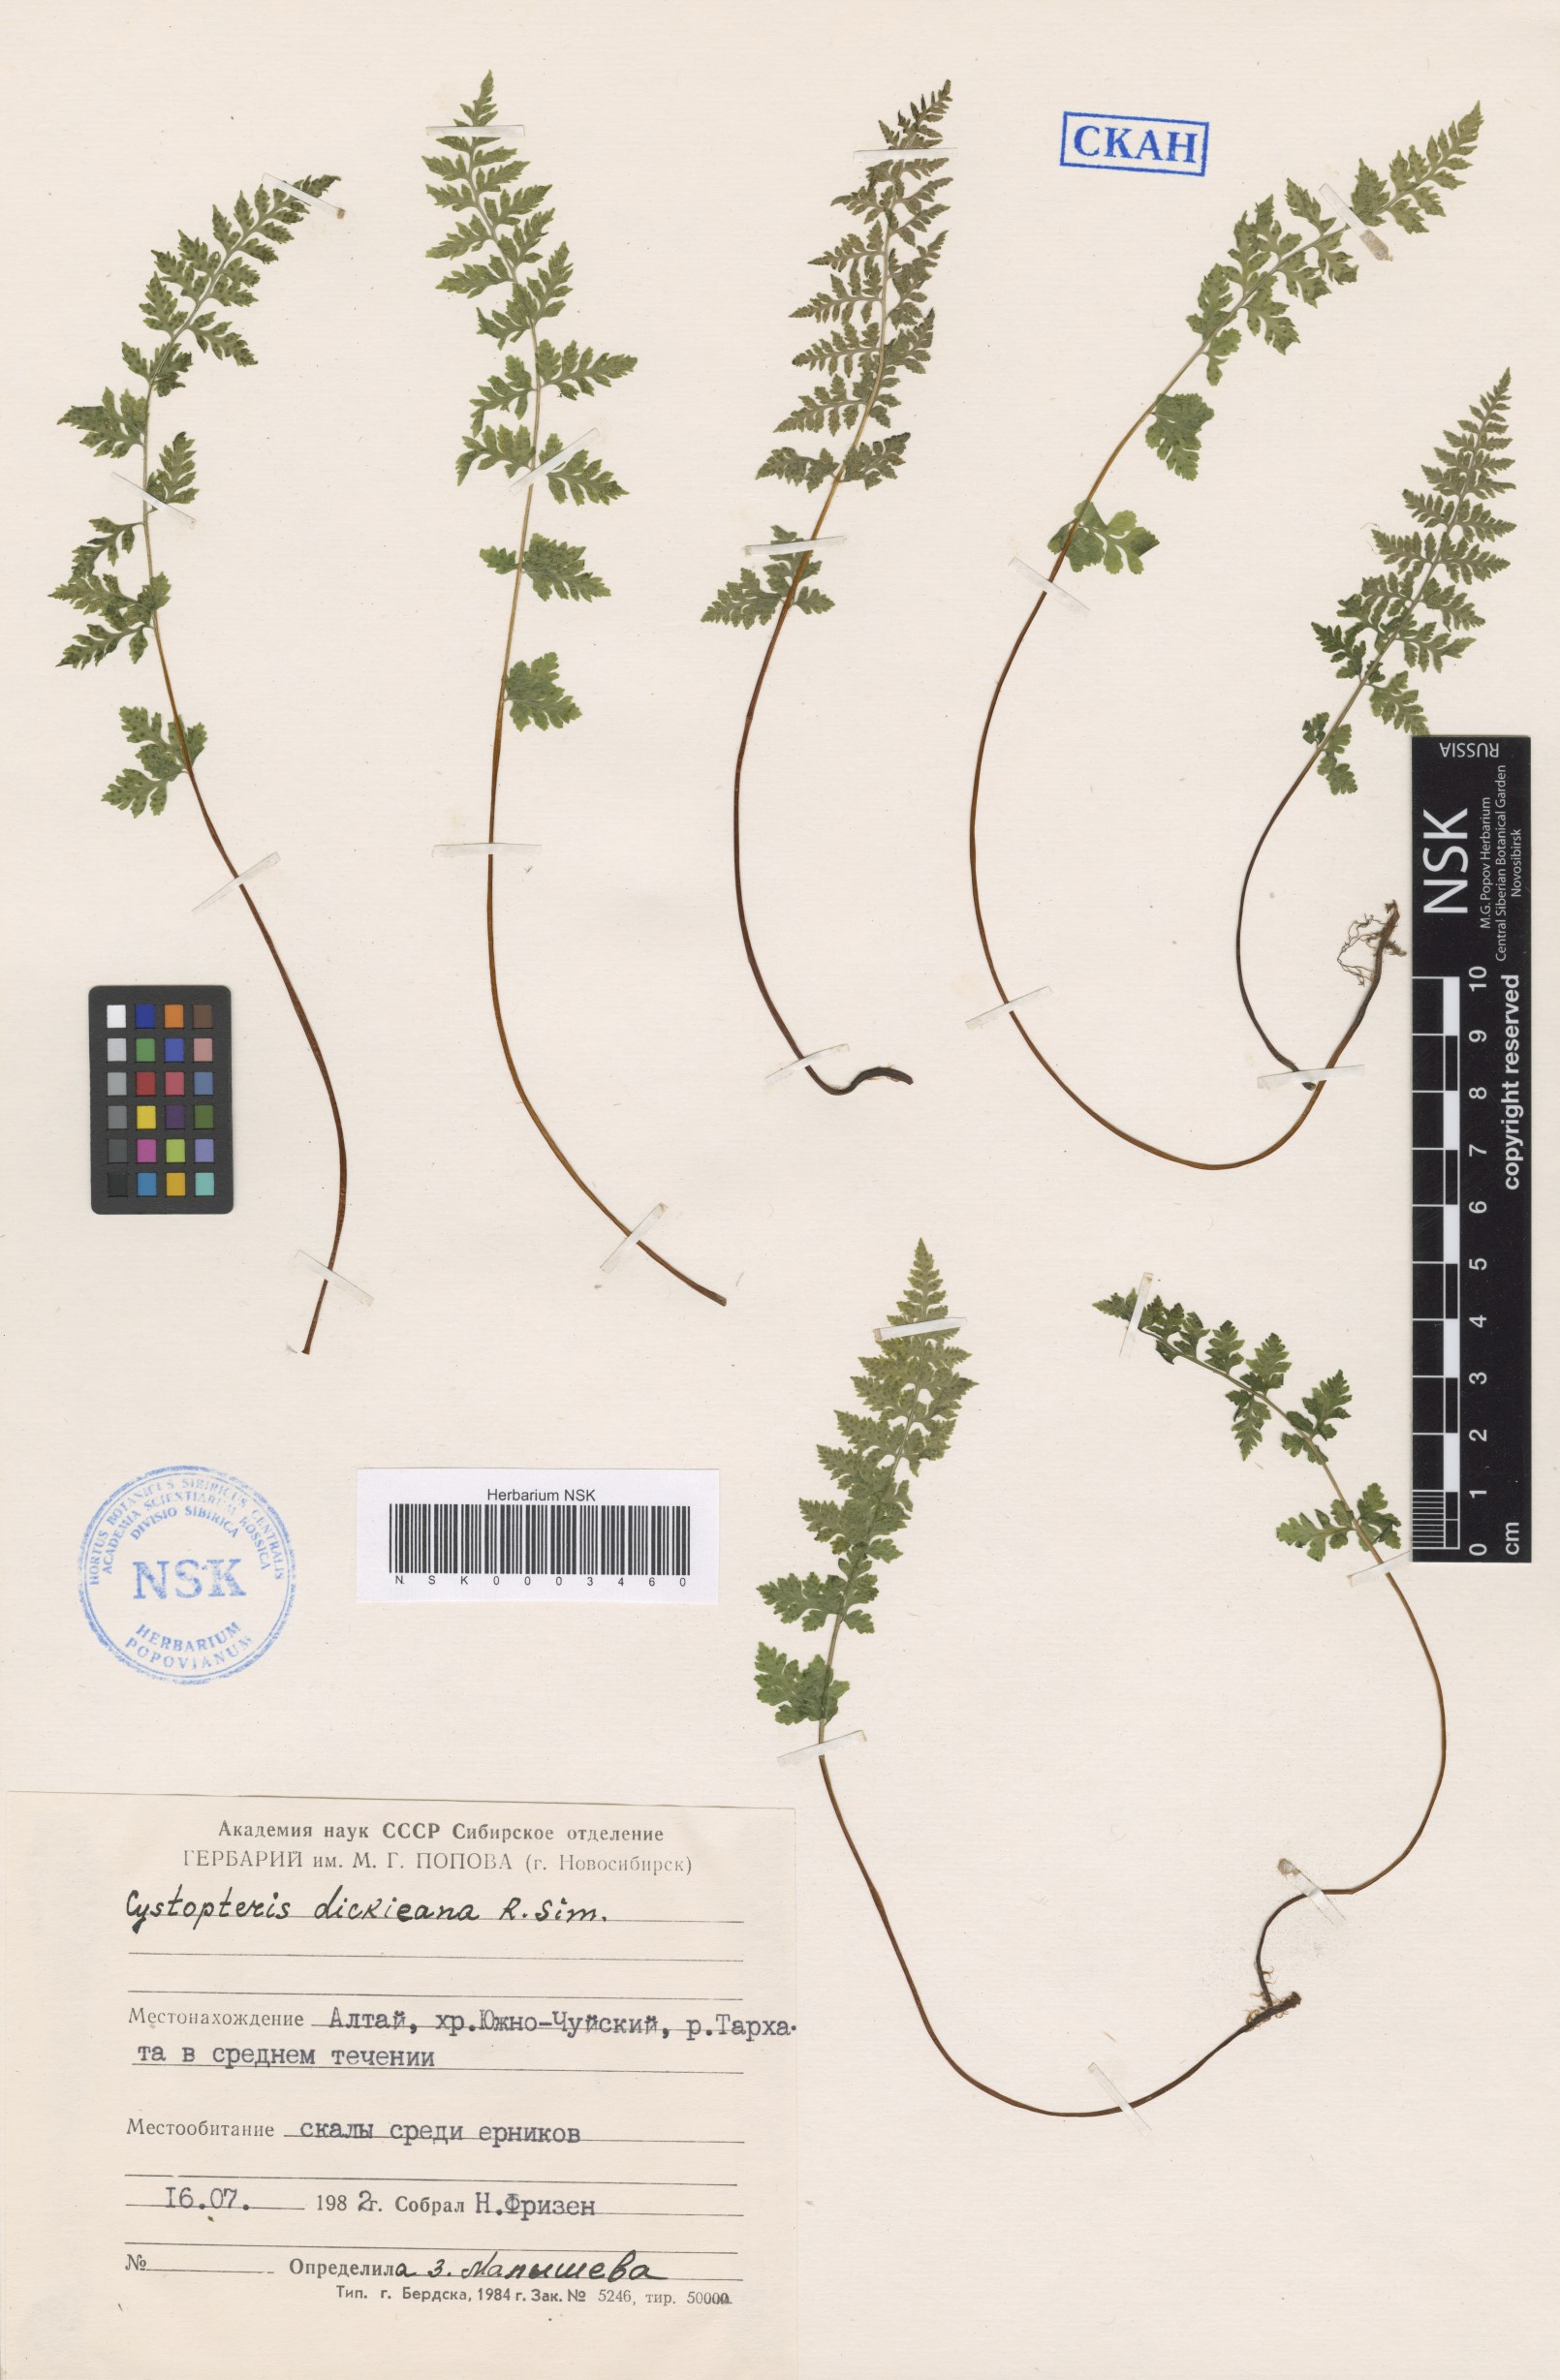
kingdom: Plantae
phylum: Tracheophyta
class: Polypodiopsida
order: Polypodiales
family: Cystopteridaceae
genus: Cystopteris
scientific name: Cystopteris dickieana
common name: Dickie's bladder-fern
